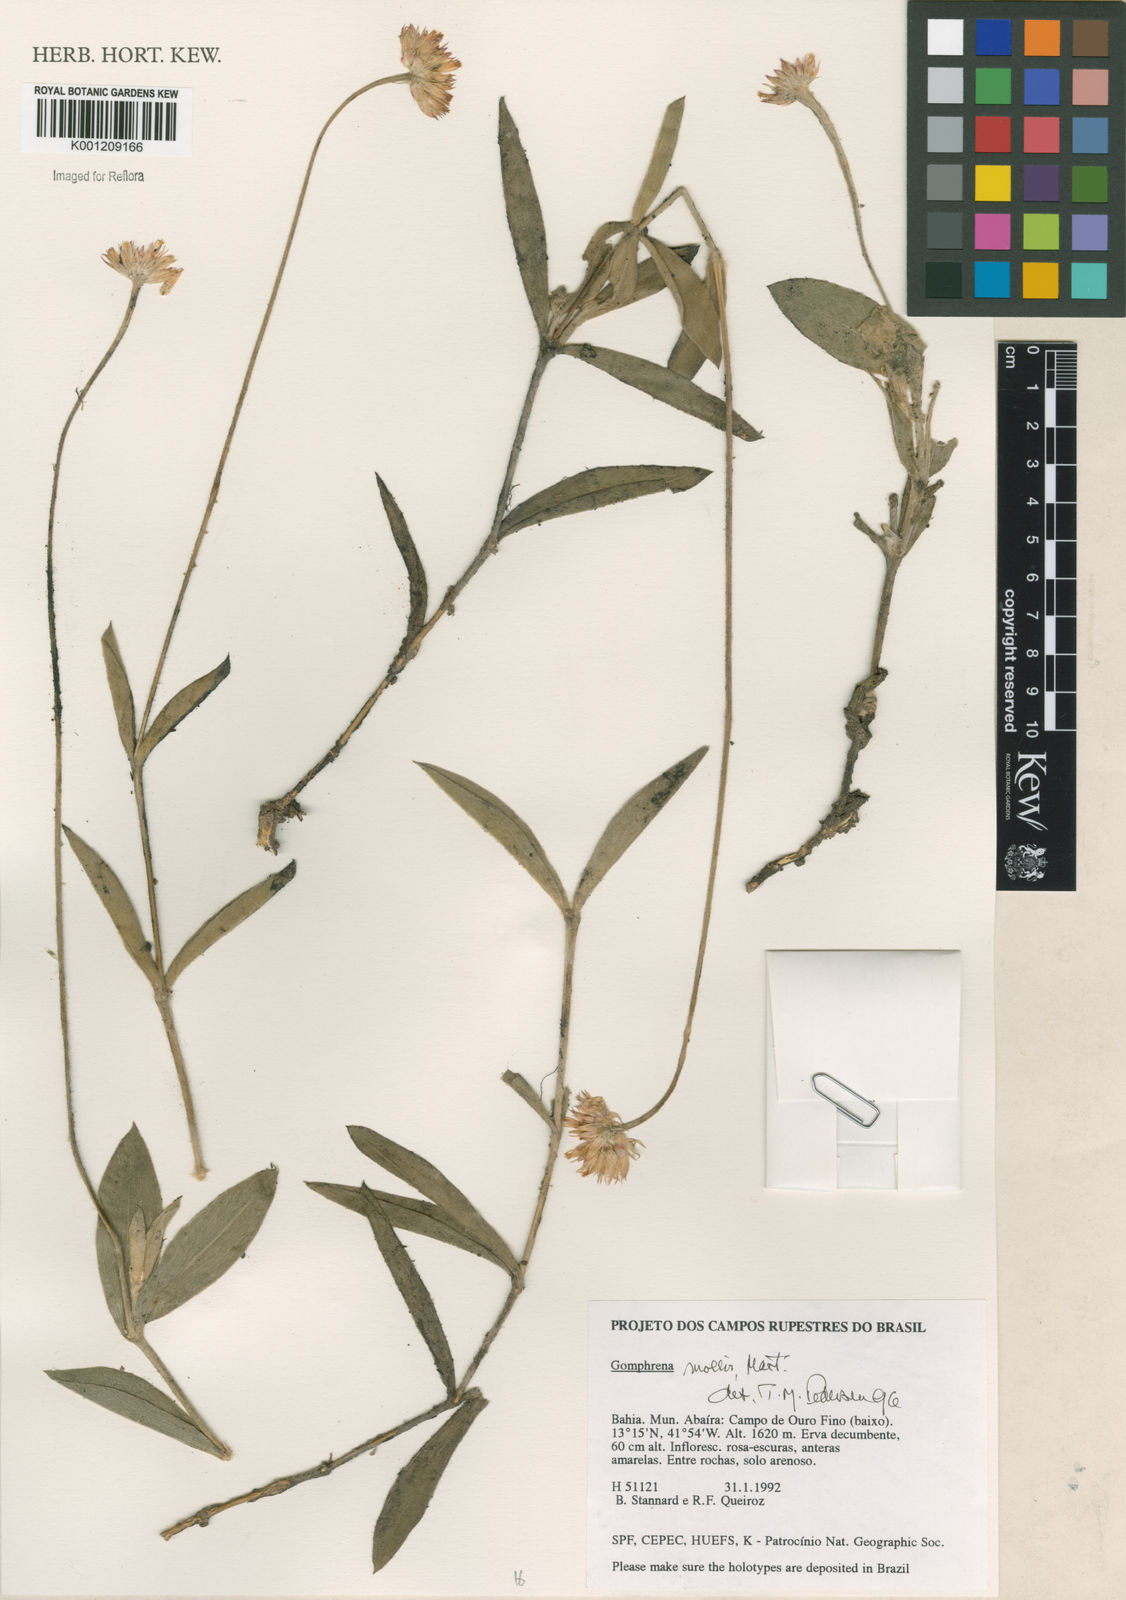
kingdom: Plantae
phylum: Tracheophyta
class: Magnoliopsida
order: Caryophyllales
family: Amaranthaceae
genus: Gomphrena
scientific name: Gomphrena mollis
